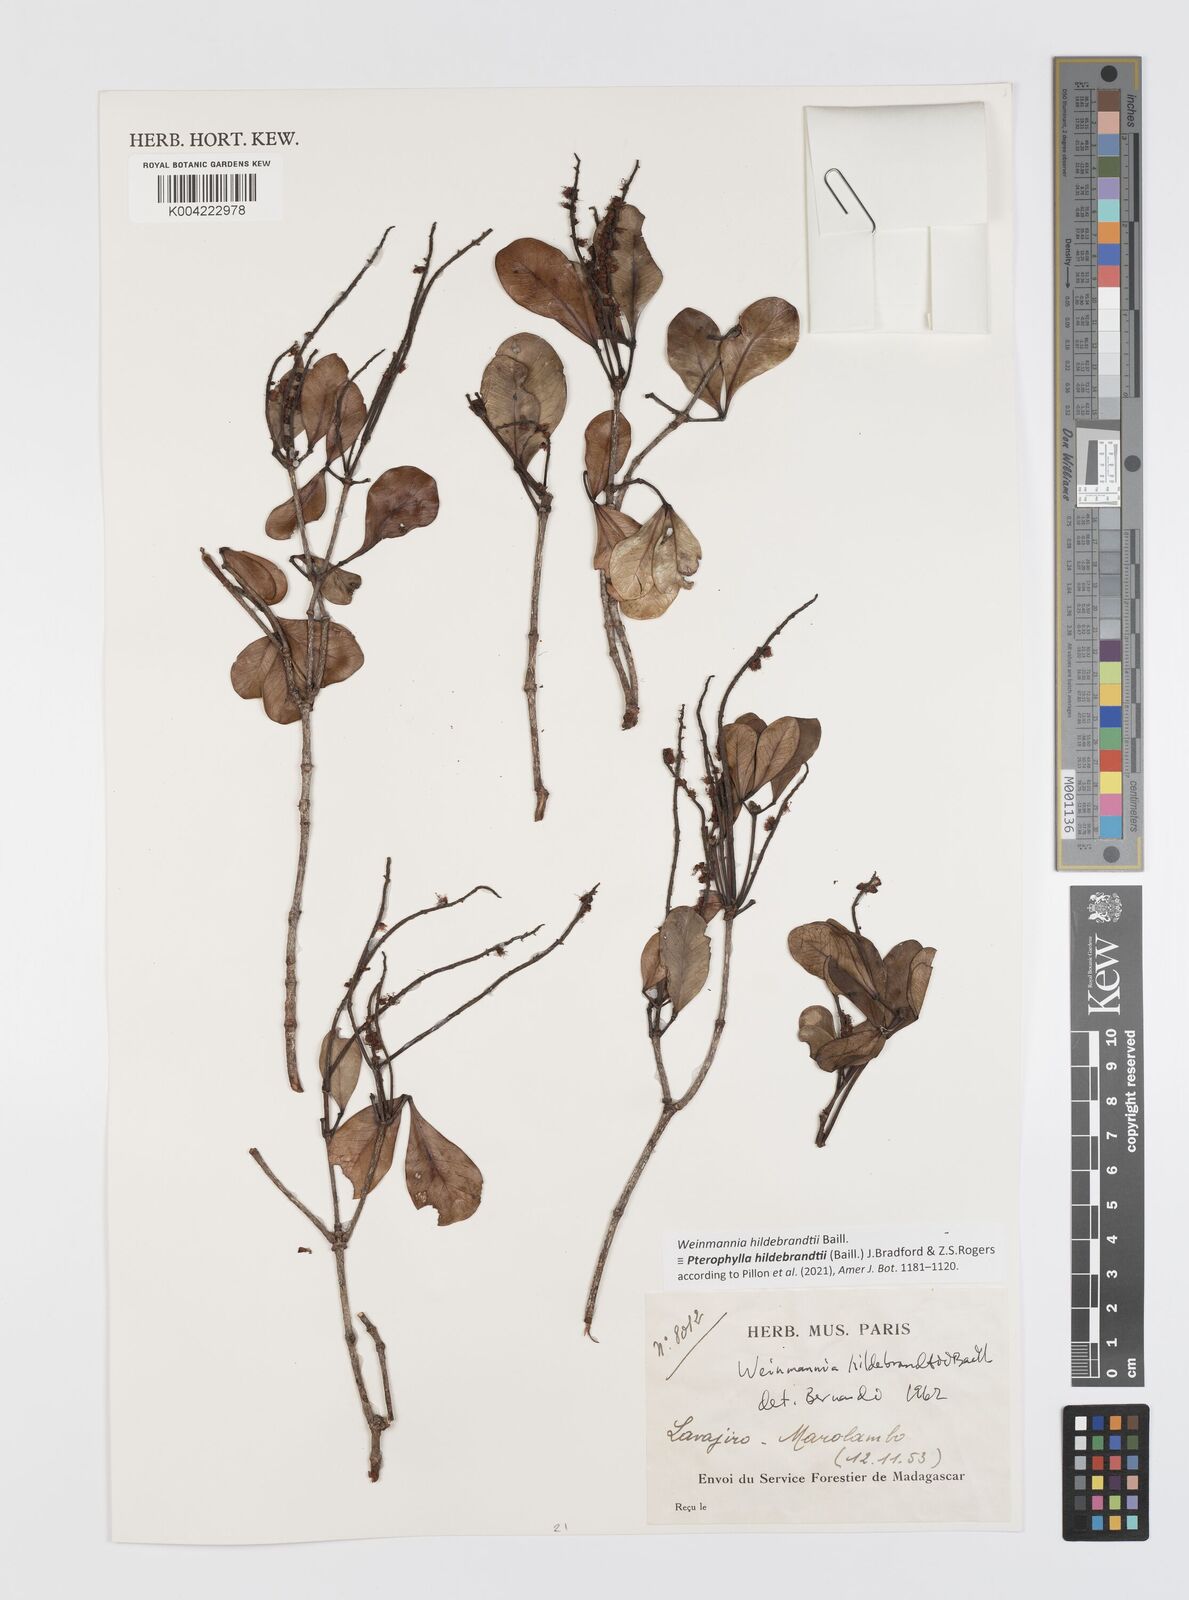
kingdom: Plantae
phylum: Tracheophyta
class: Magnoliopsida
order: Oxalidales
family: Cunoniaceae
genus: Pterophylla
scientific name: Pterophylla hildebrandtii
